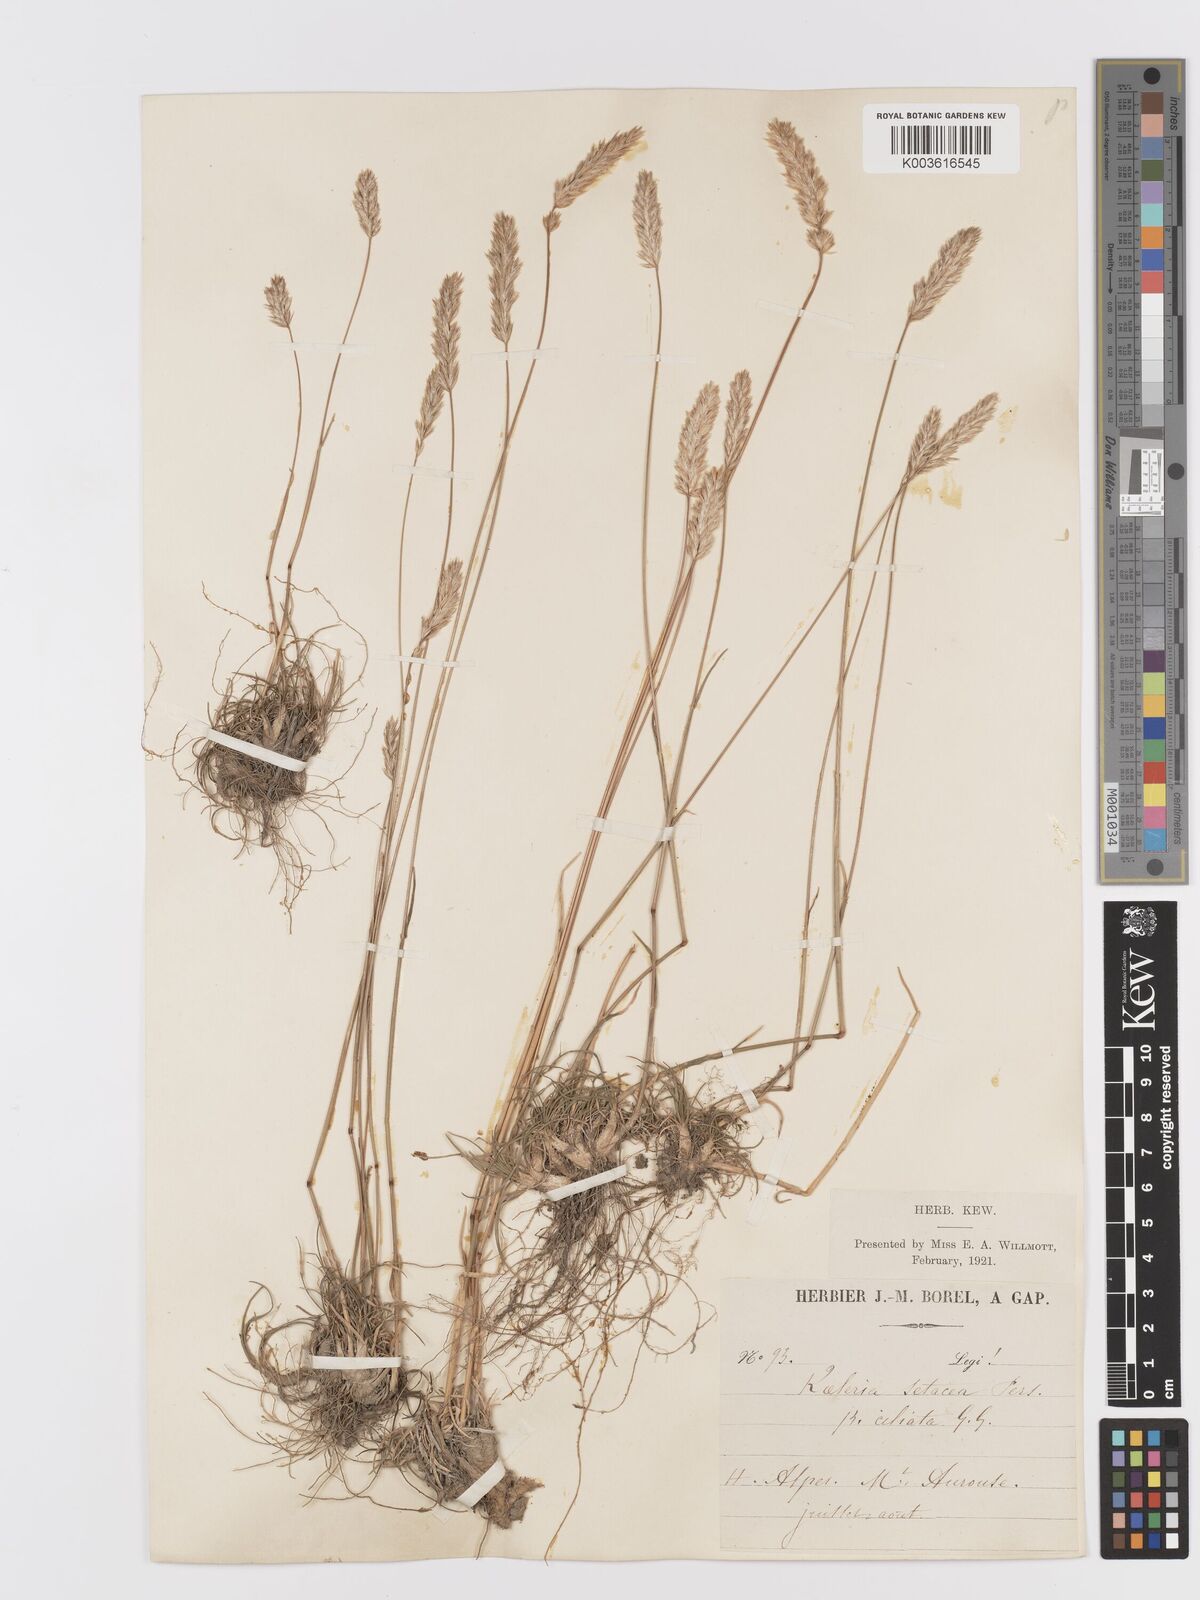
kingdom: Plantae
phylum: Tracheophyta
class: Liliopsida
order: Poales
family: Poaceae
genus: Koeleria
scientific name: Koeleria vallesiana
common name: Somerset hair-grass
